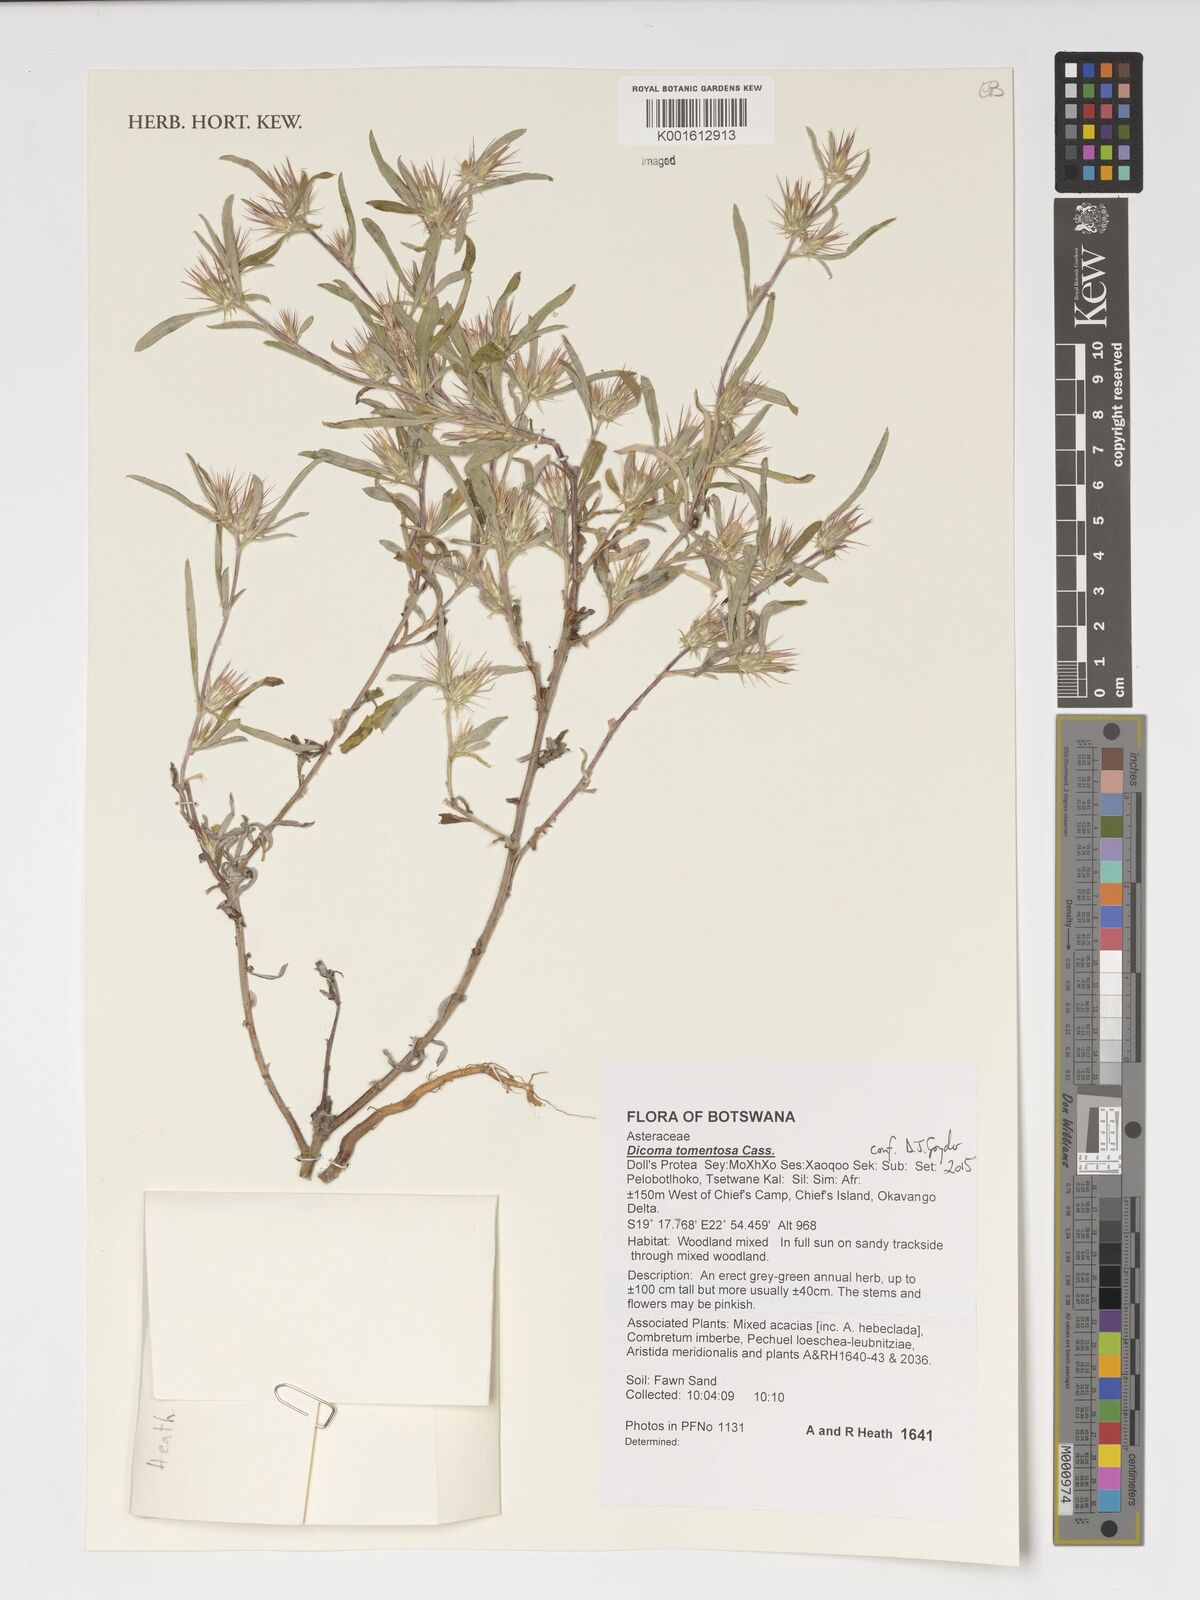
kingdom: Plantae
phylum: Tracheophyta
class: Magnoliopsida
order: Asterales
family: Asteraceae
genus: Dicoma
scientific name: Dicoma tomentosa
